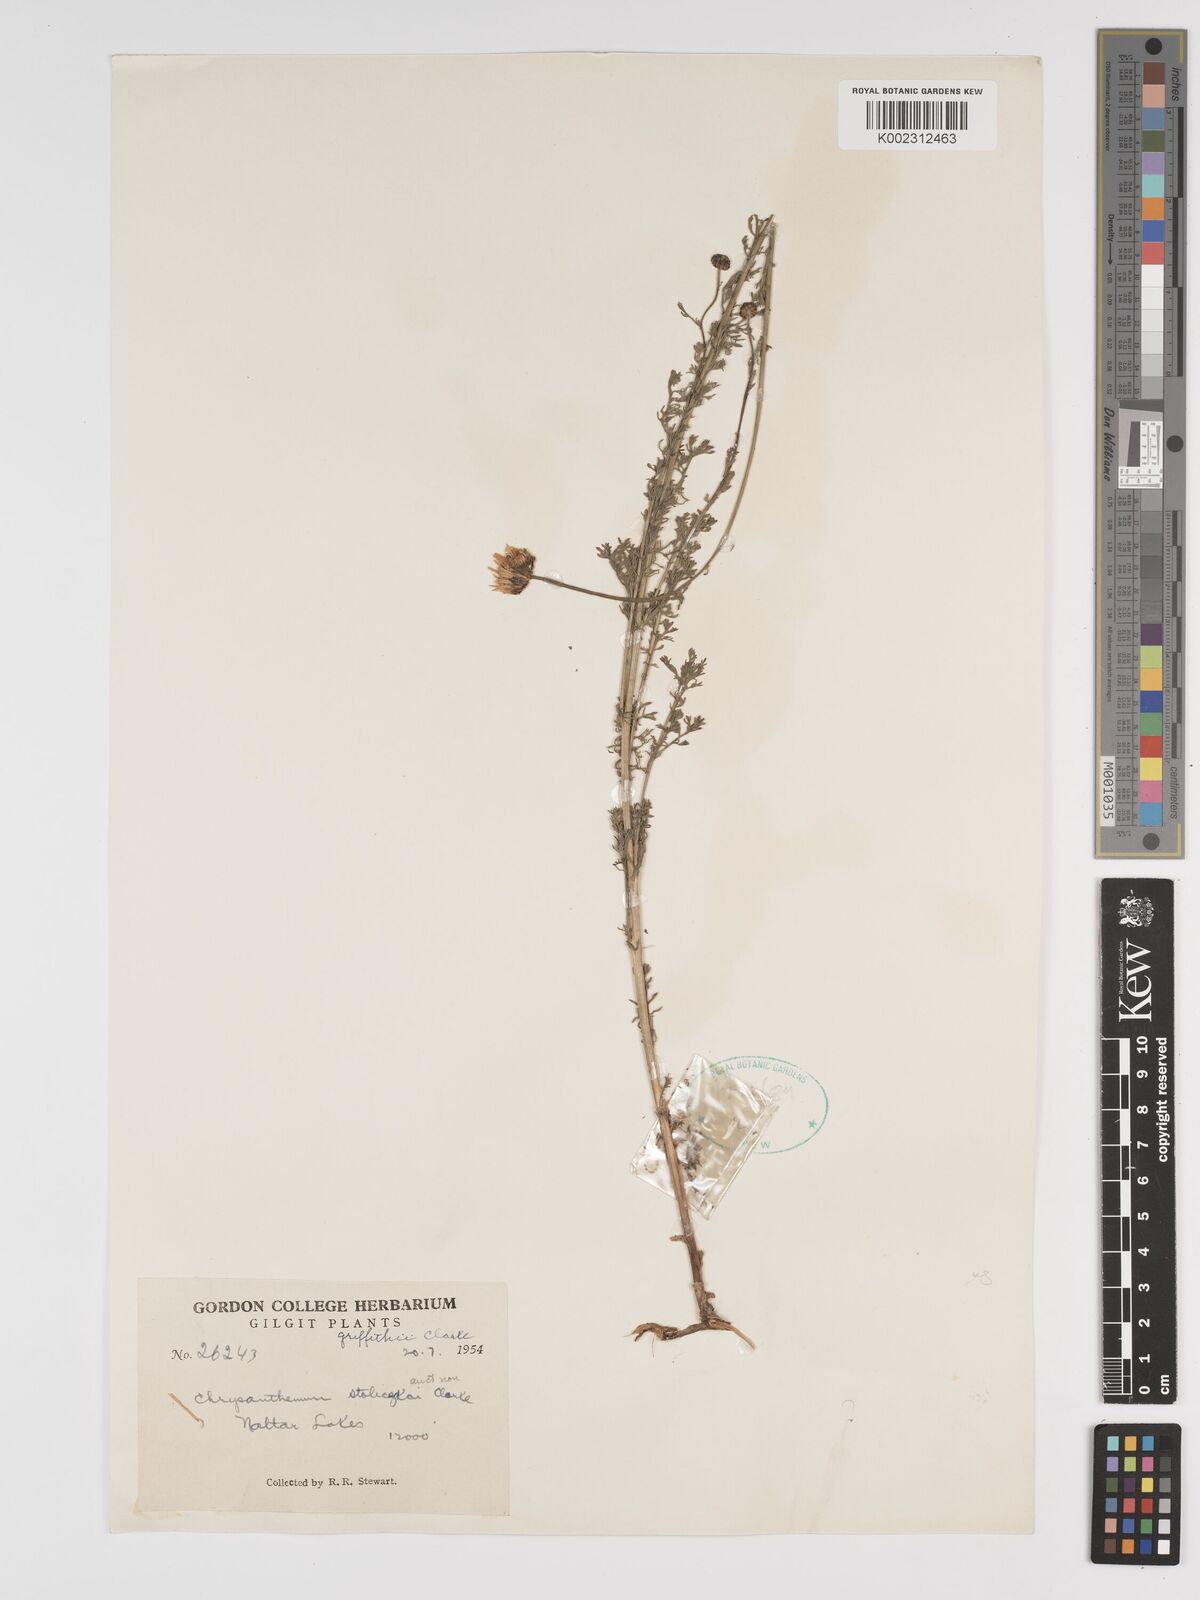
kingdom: Plantae
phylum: Tracheophyta
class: Magnoliopsida
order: Asterales
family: Asteraceae
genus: Tanacetum
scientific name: Tanacetum stoliczkae
